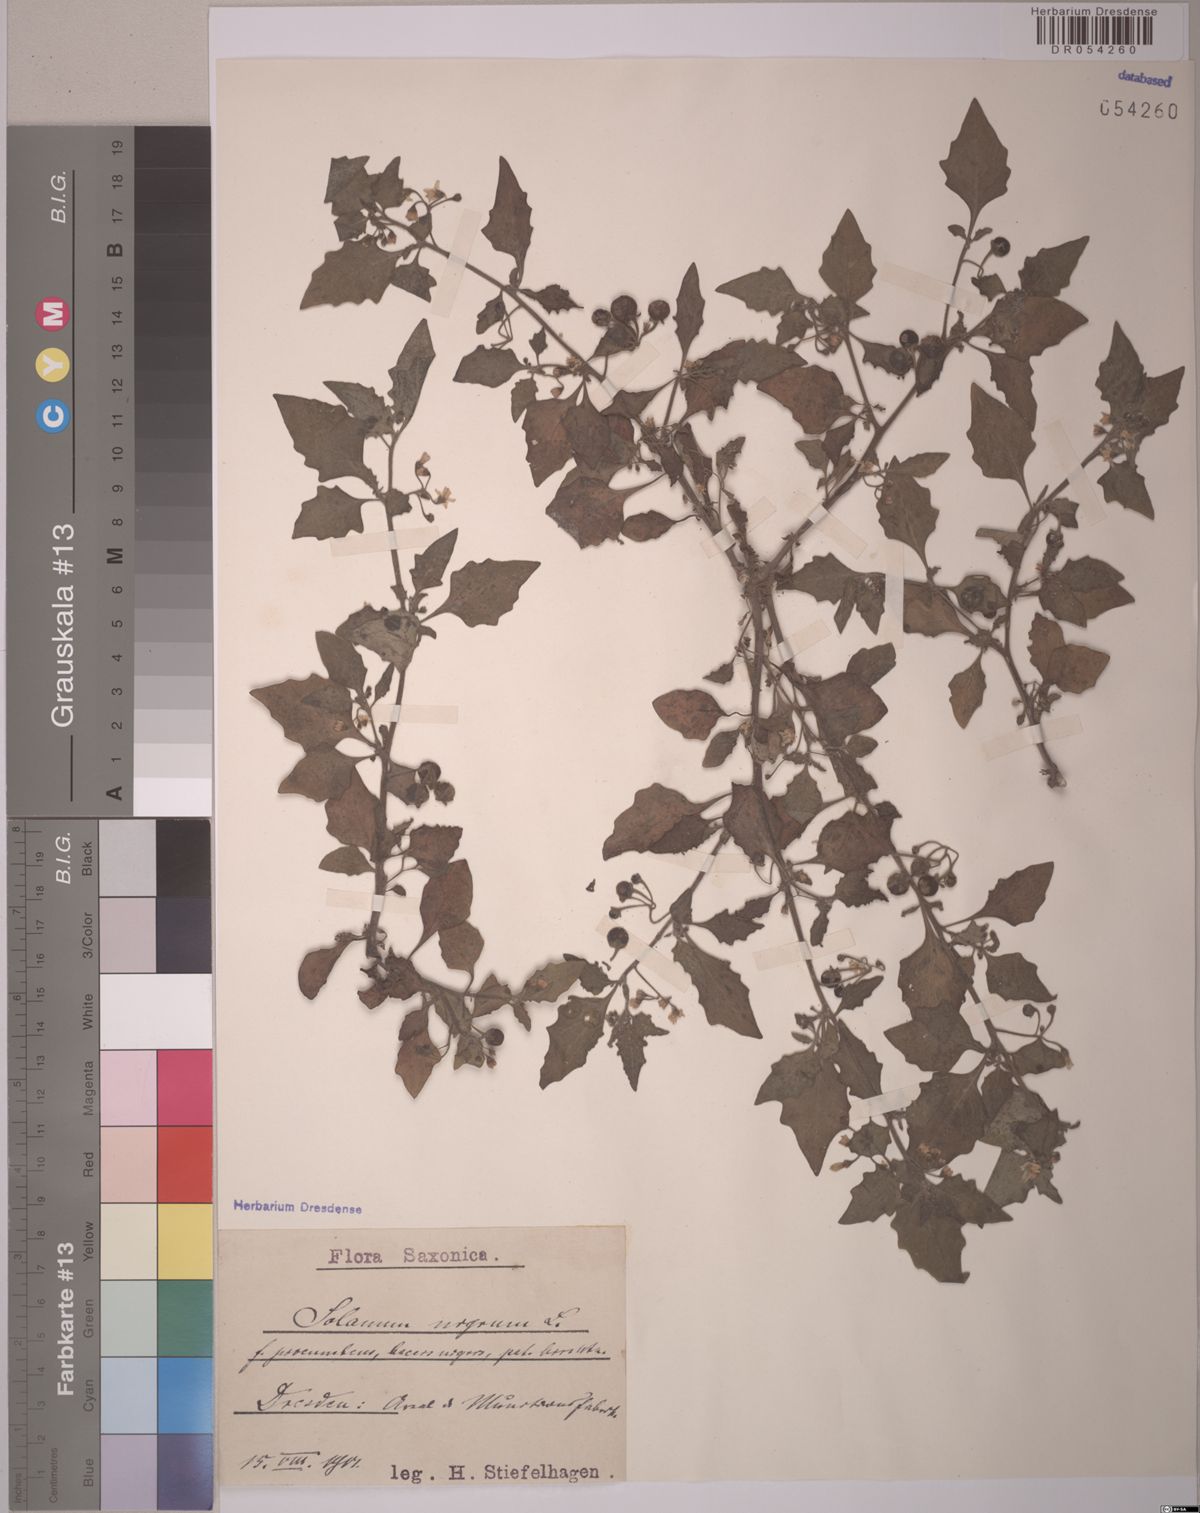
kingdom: Plantae
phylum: Tracheophyta
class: Magnoliopsida
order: Solanales
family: Solanaceae
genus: Solanum
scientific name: Solanum nigrum
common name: Black nightshade
